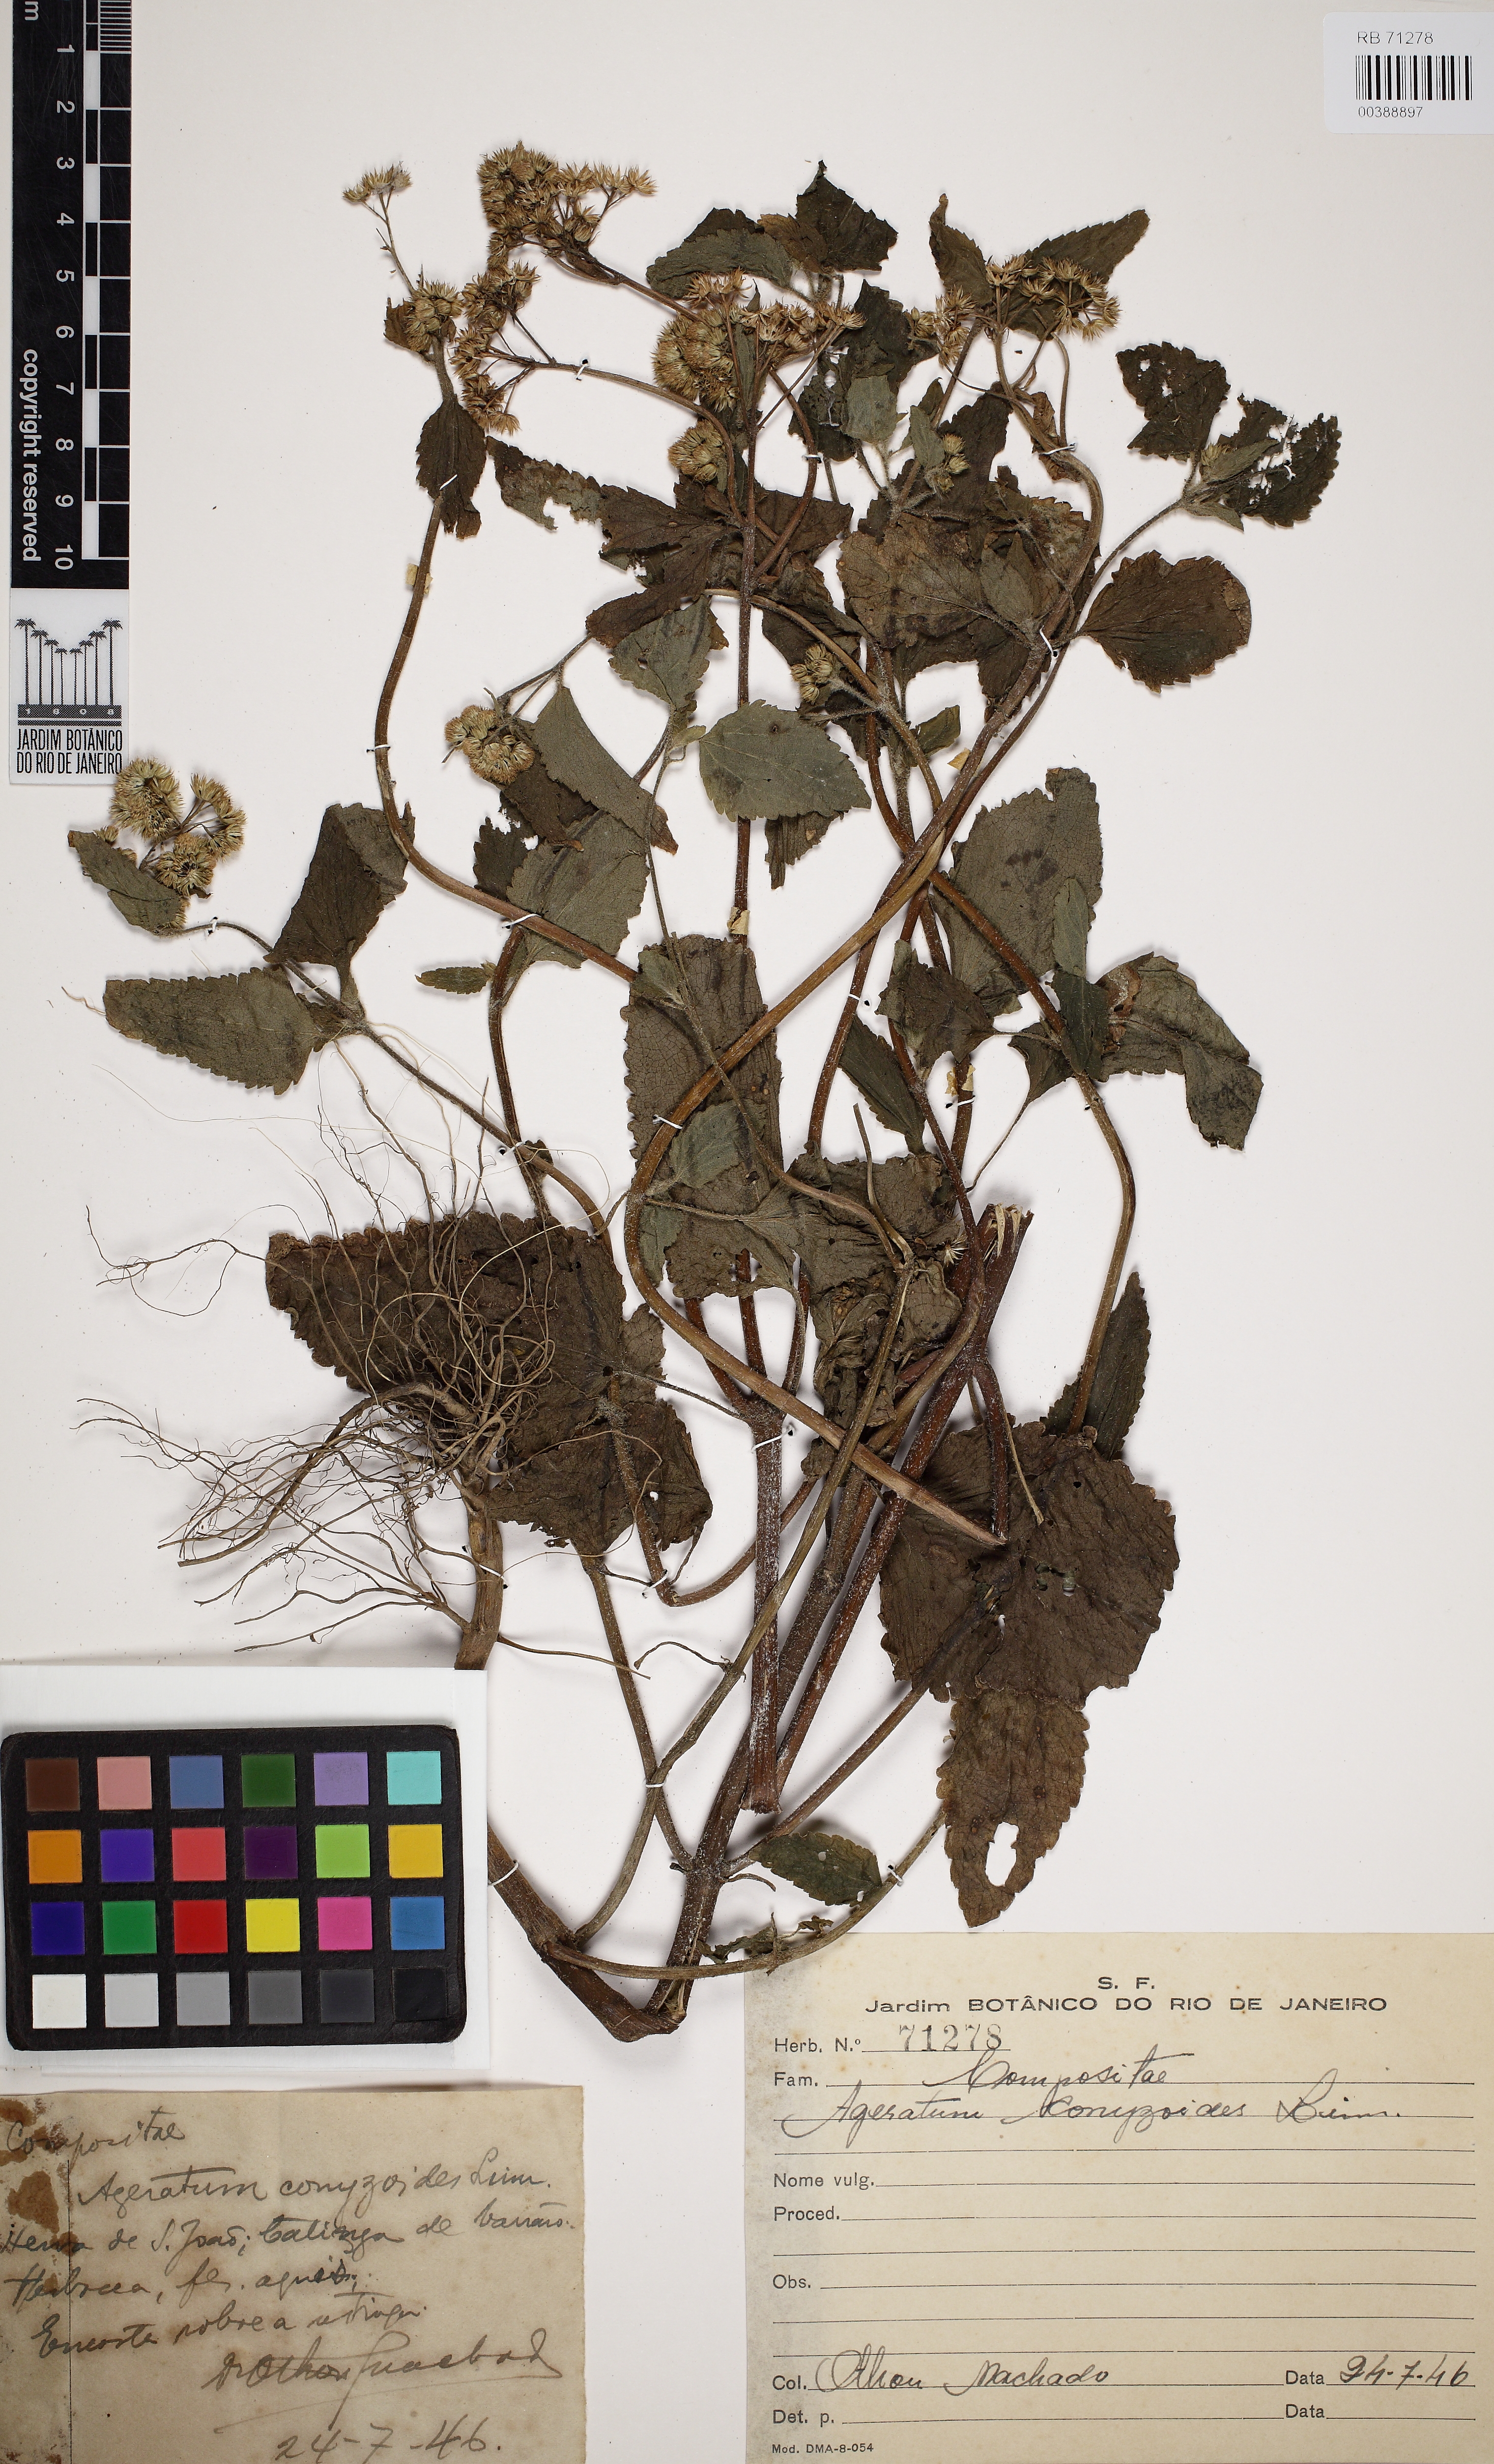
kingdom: Plantae
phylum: Tracheophyta
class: Magnoliopsida
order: Asterales
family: Asteraceae
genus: Ageratum
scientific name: Ageratum conyzoides
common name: Tropical whiteweed
